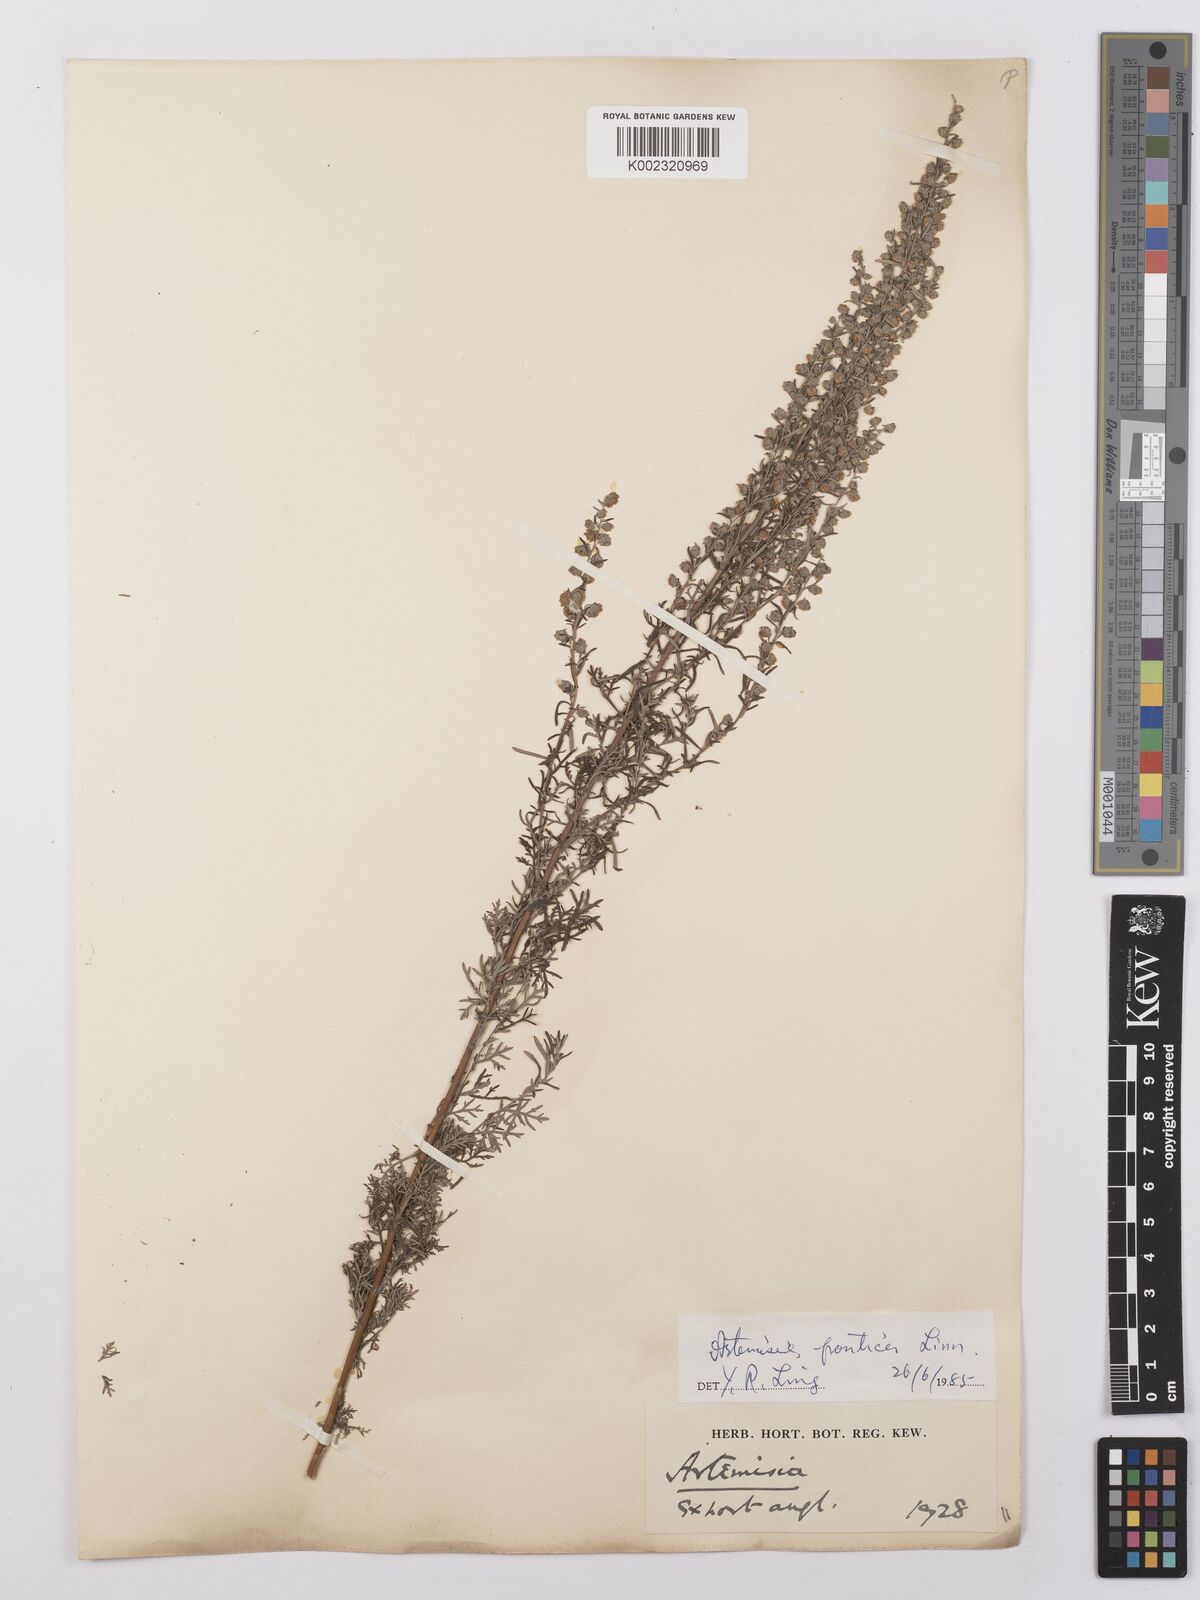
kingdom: Plantae
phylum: Tracheophyta
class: Magnoliopsida
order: Asterales
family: Asteraceae
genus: Artemisia
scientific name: Artemisia
